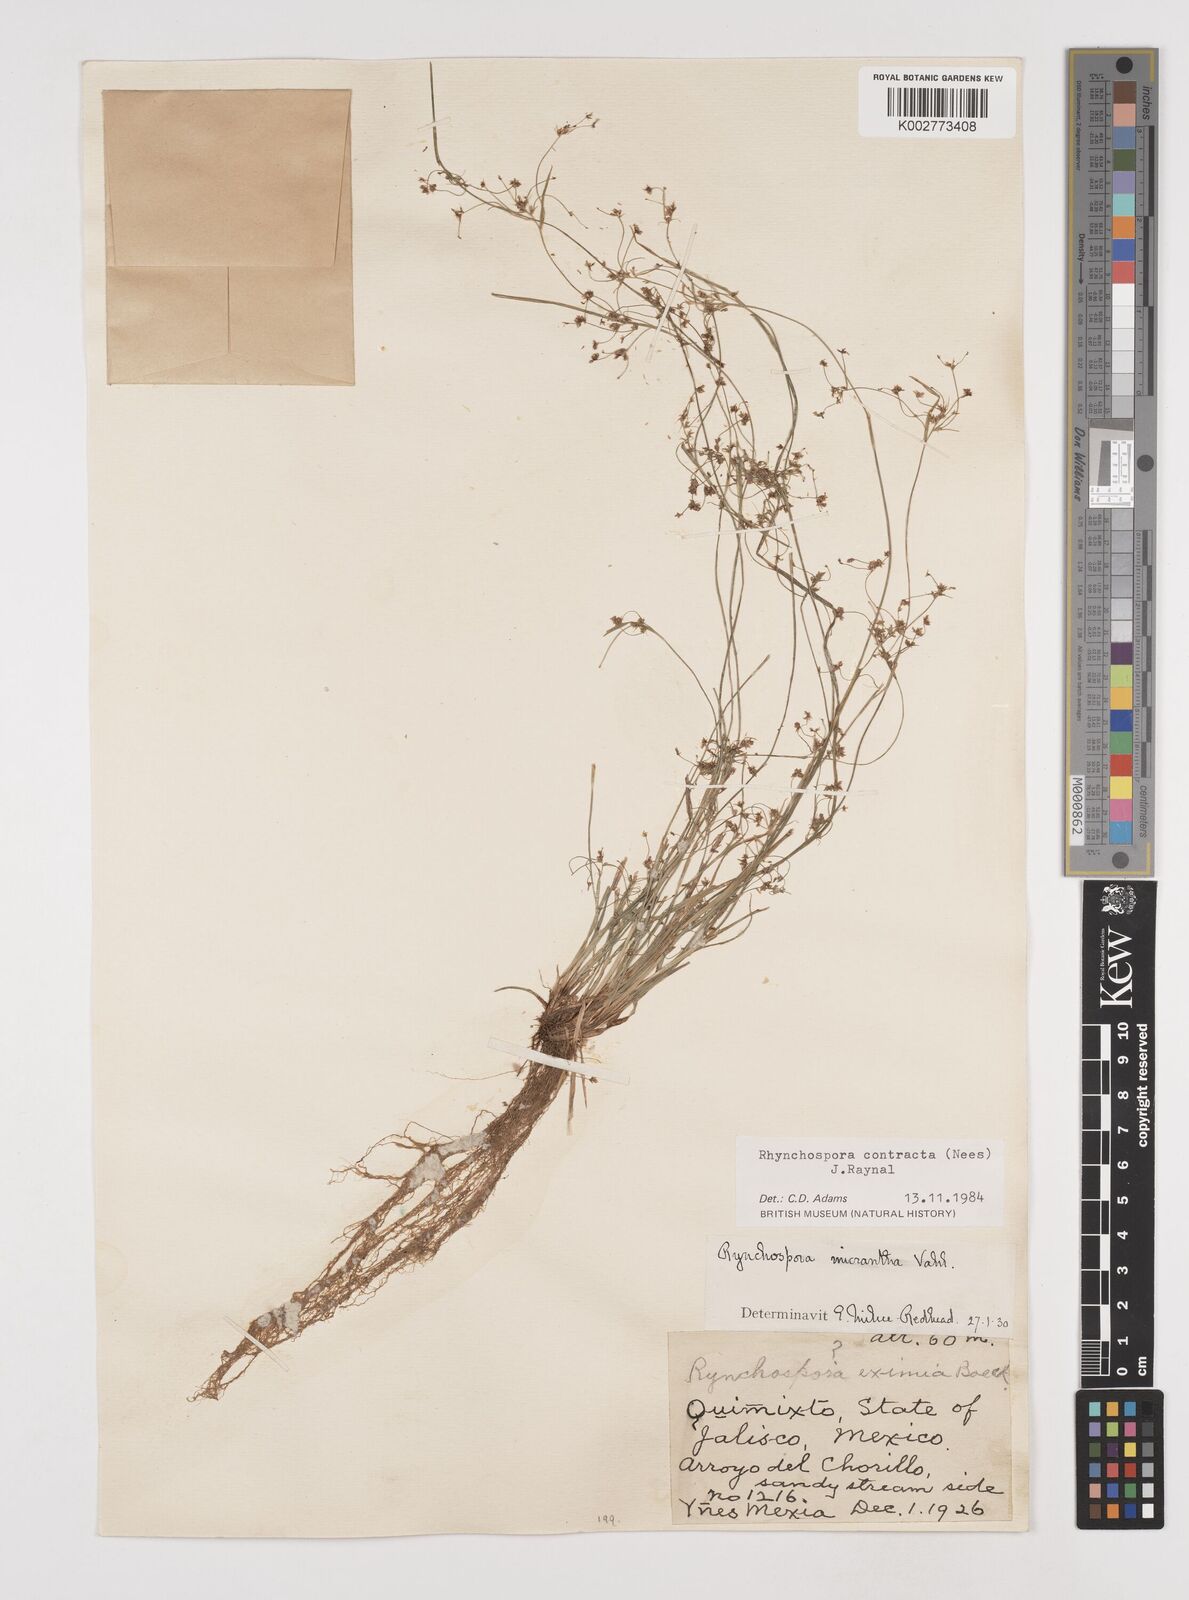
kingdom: Plantae
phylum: Tracheophyta
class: Liliopsida
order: Poales
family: Cyperaceae
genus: Rhynchospora
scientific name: Rhynchospora contracta
